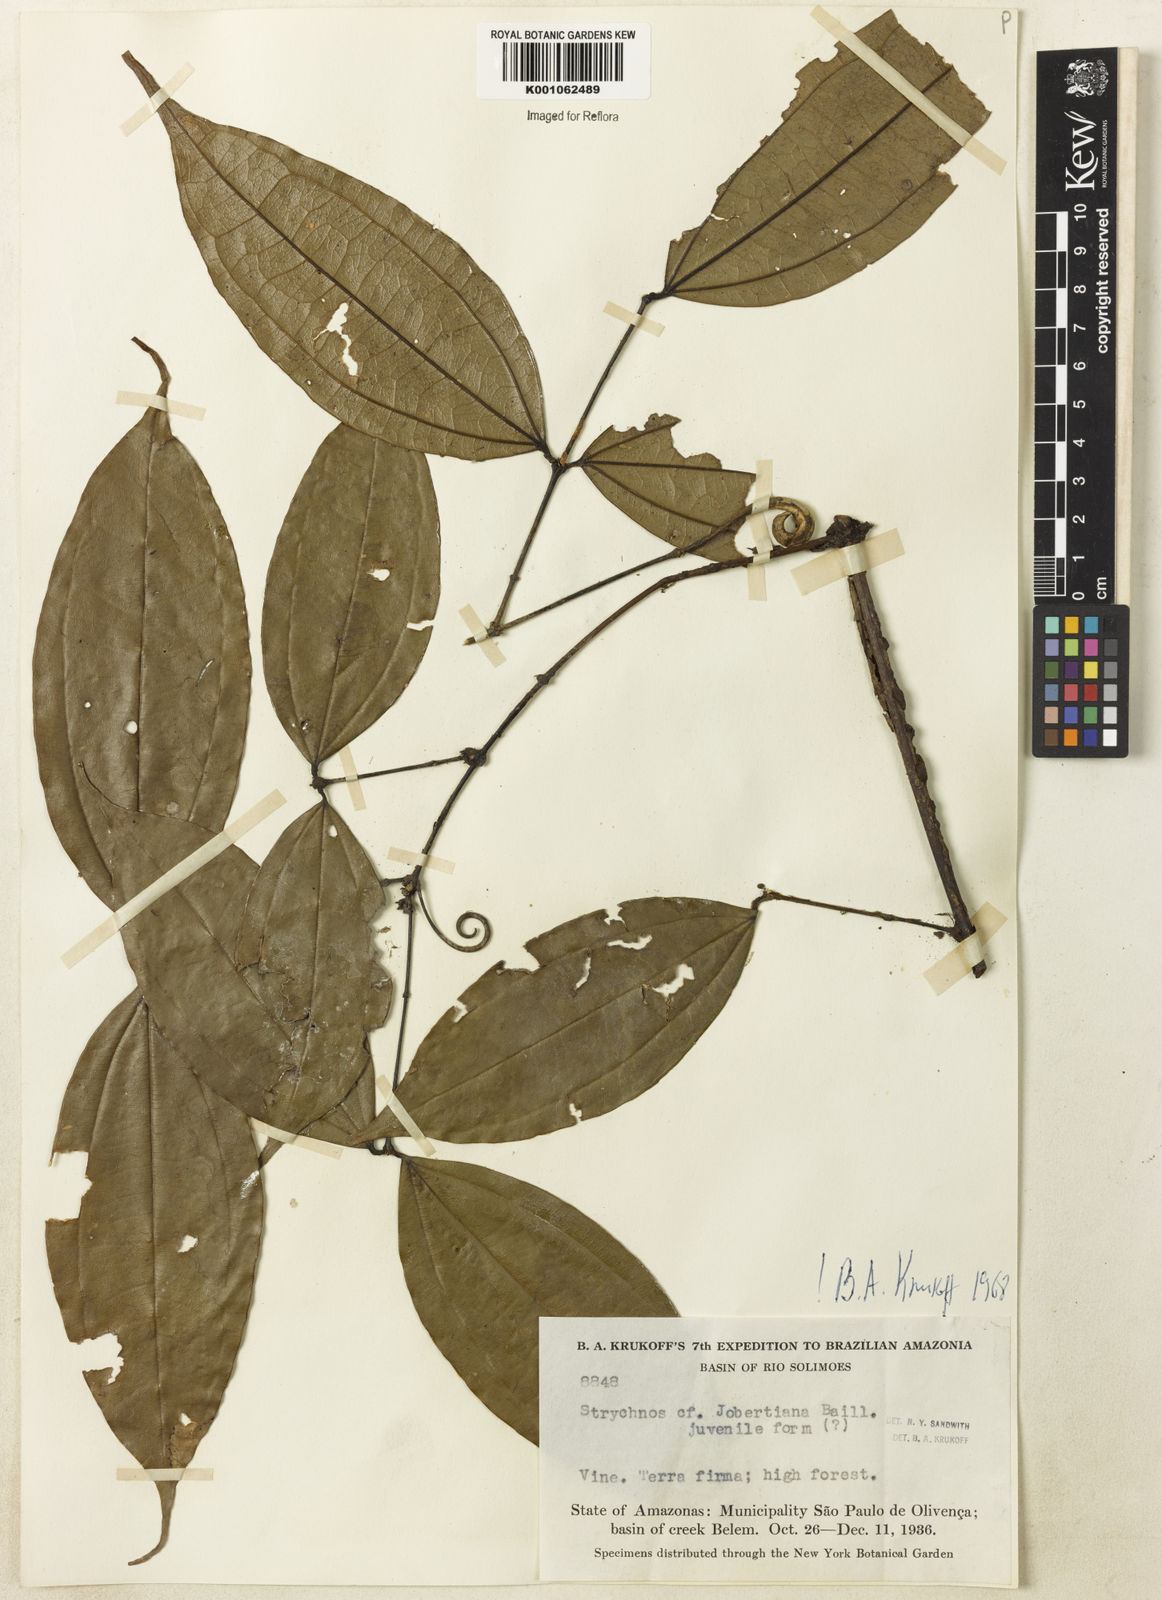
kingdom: Plantae
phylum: Tracheophyta
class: Magnoliopsida
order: Gentianales
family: Loganiaceae
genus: Strychnos
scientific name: Strychnos jobertiana
